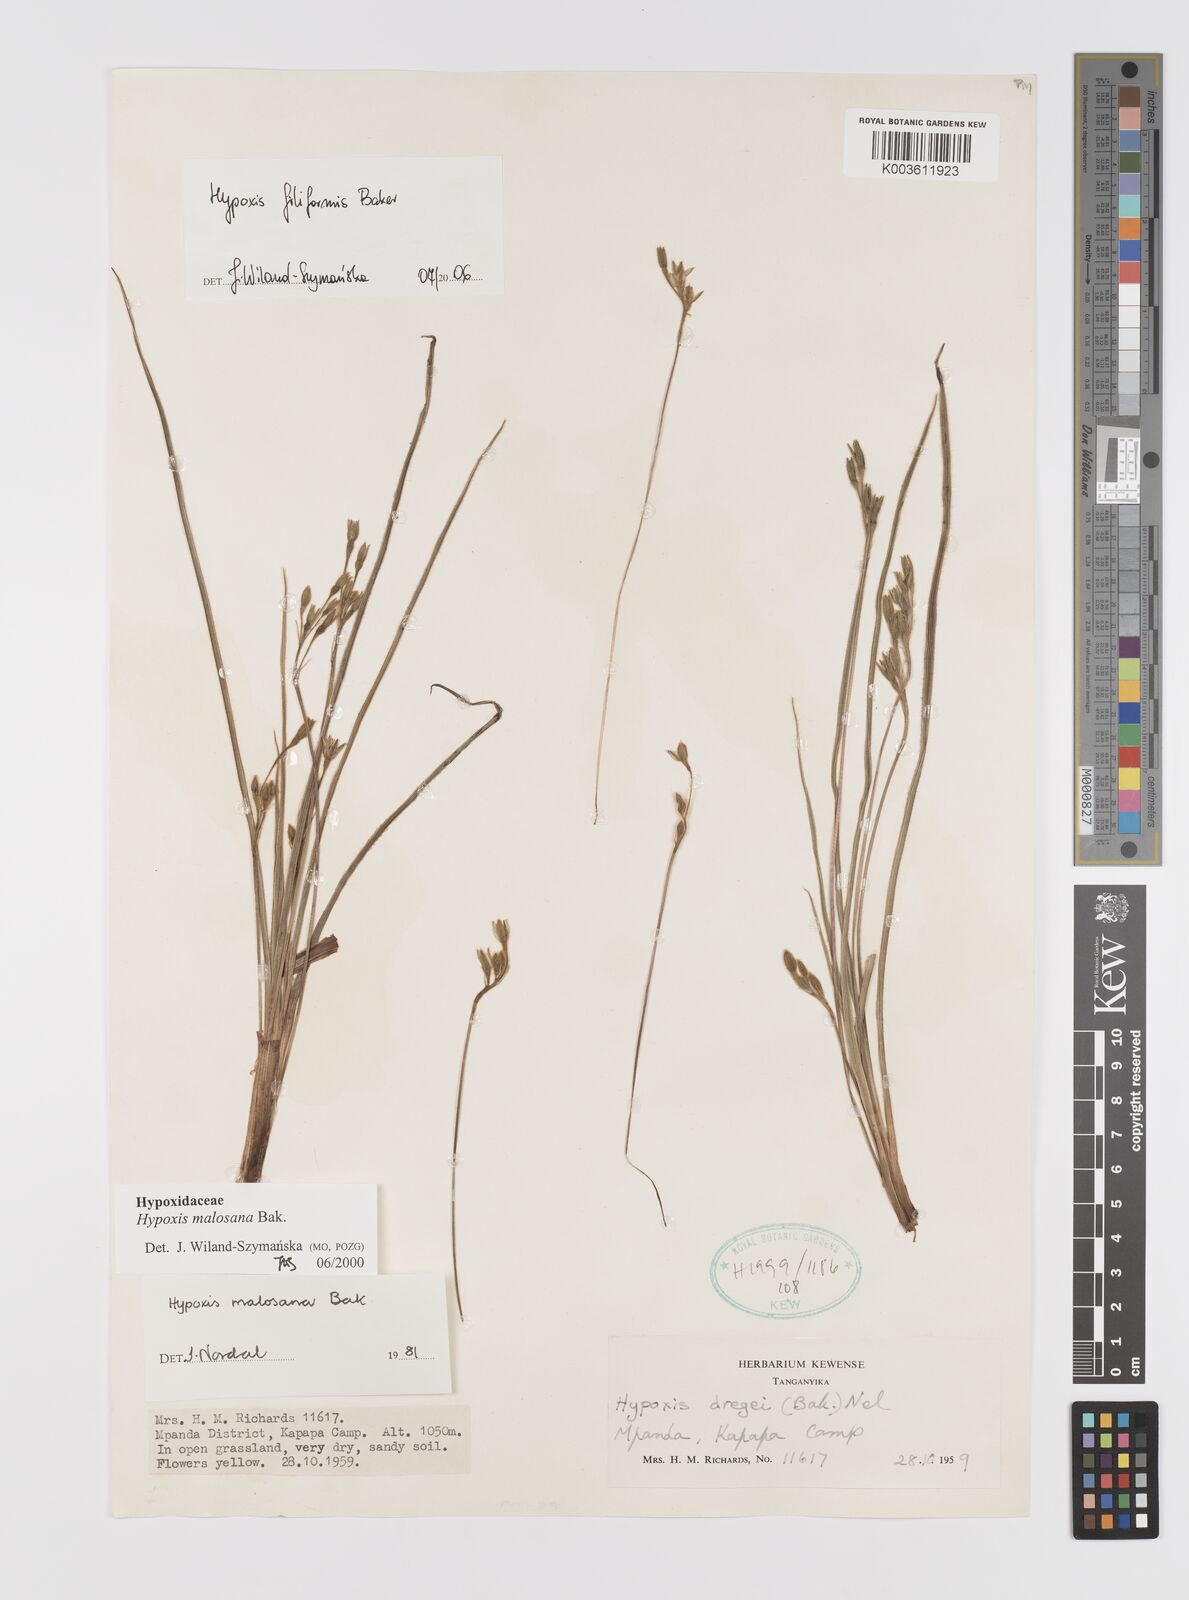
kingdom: Plantae
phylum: Tracheophyta
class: Liliopsida
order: Asparagales
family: Hypoxidaceae
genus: Hypoxis
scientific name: Hypoxis filiformis
